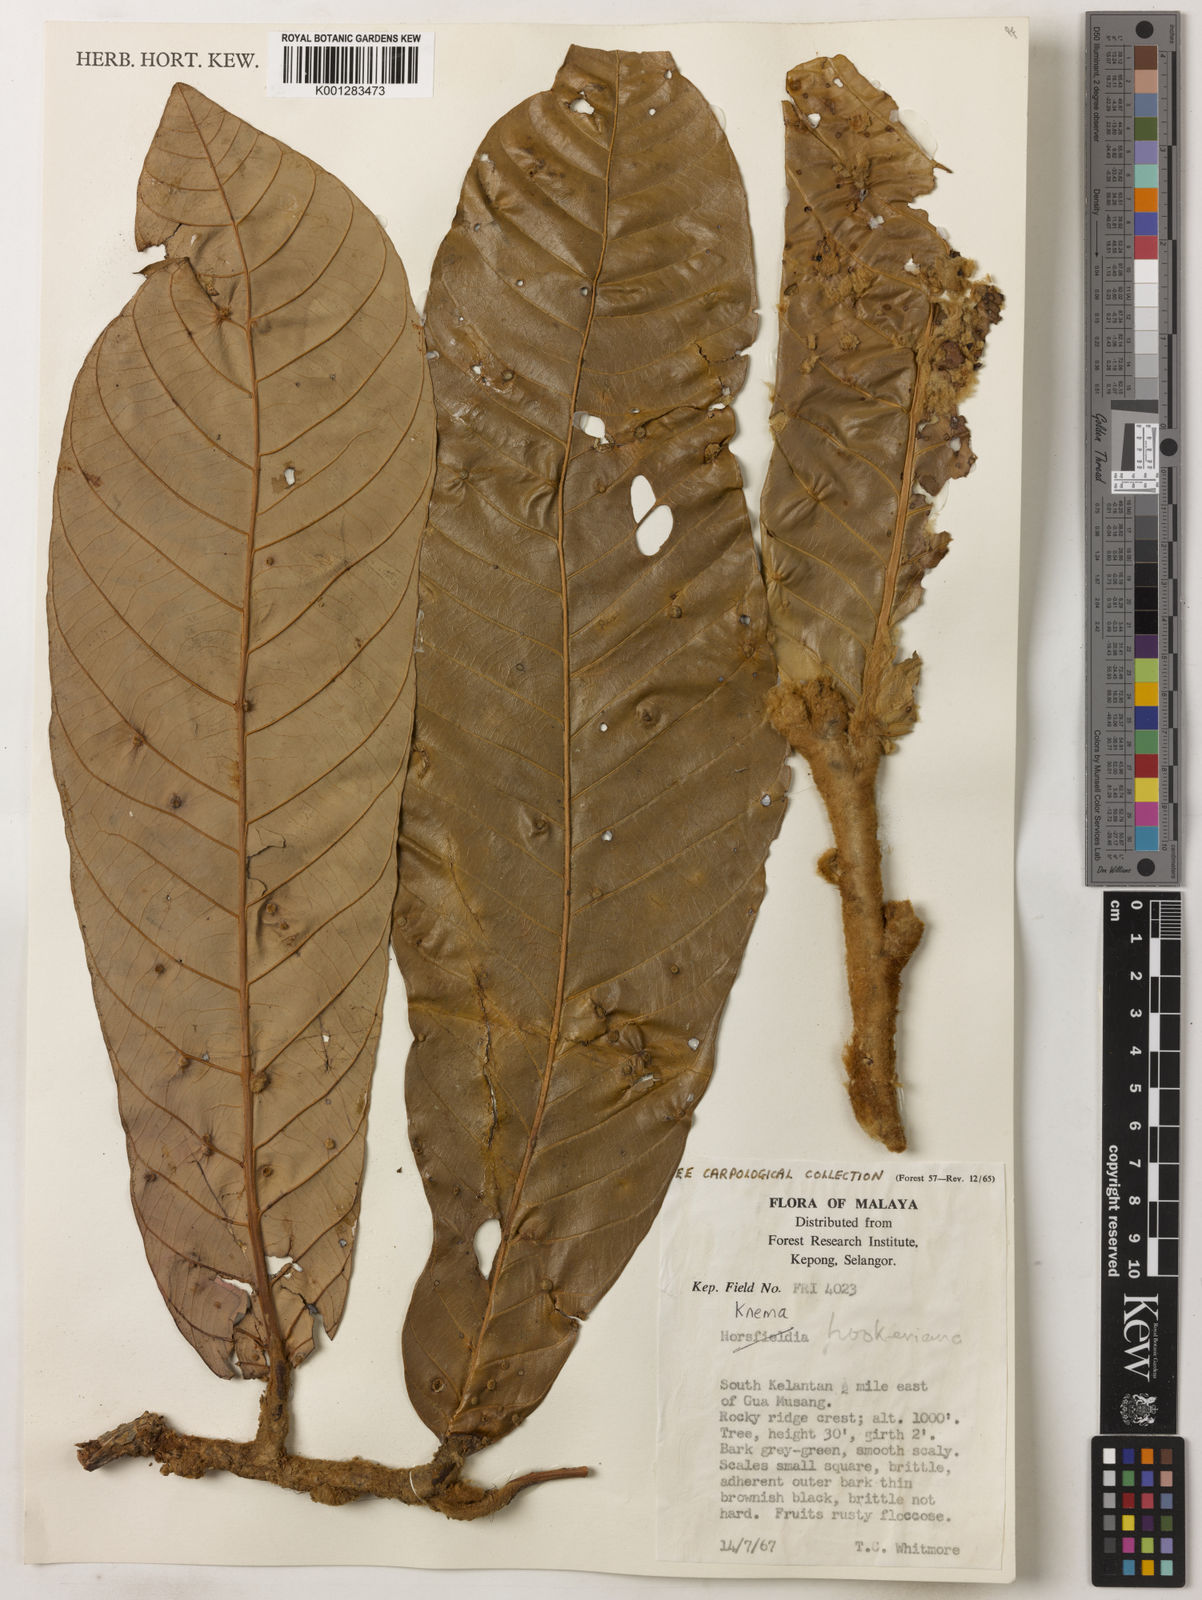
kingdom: Plantae
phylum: Tracheophyta
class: Magnoliopsida
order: Magnoliales
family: Myristicaceae
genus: Knema
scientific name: Knema hookeriana
